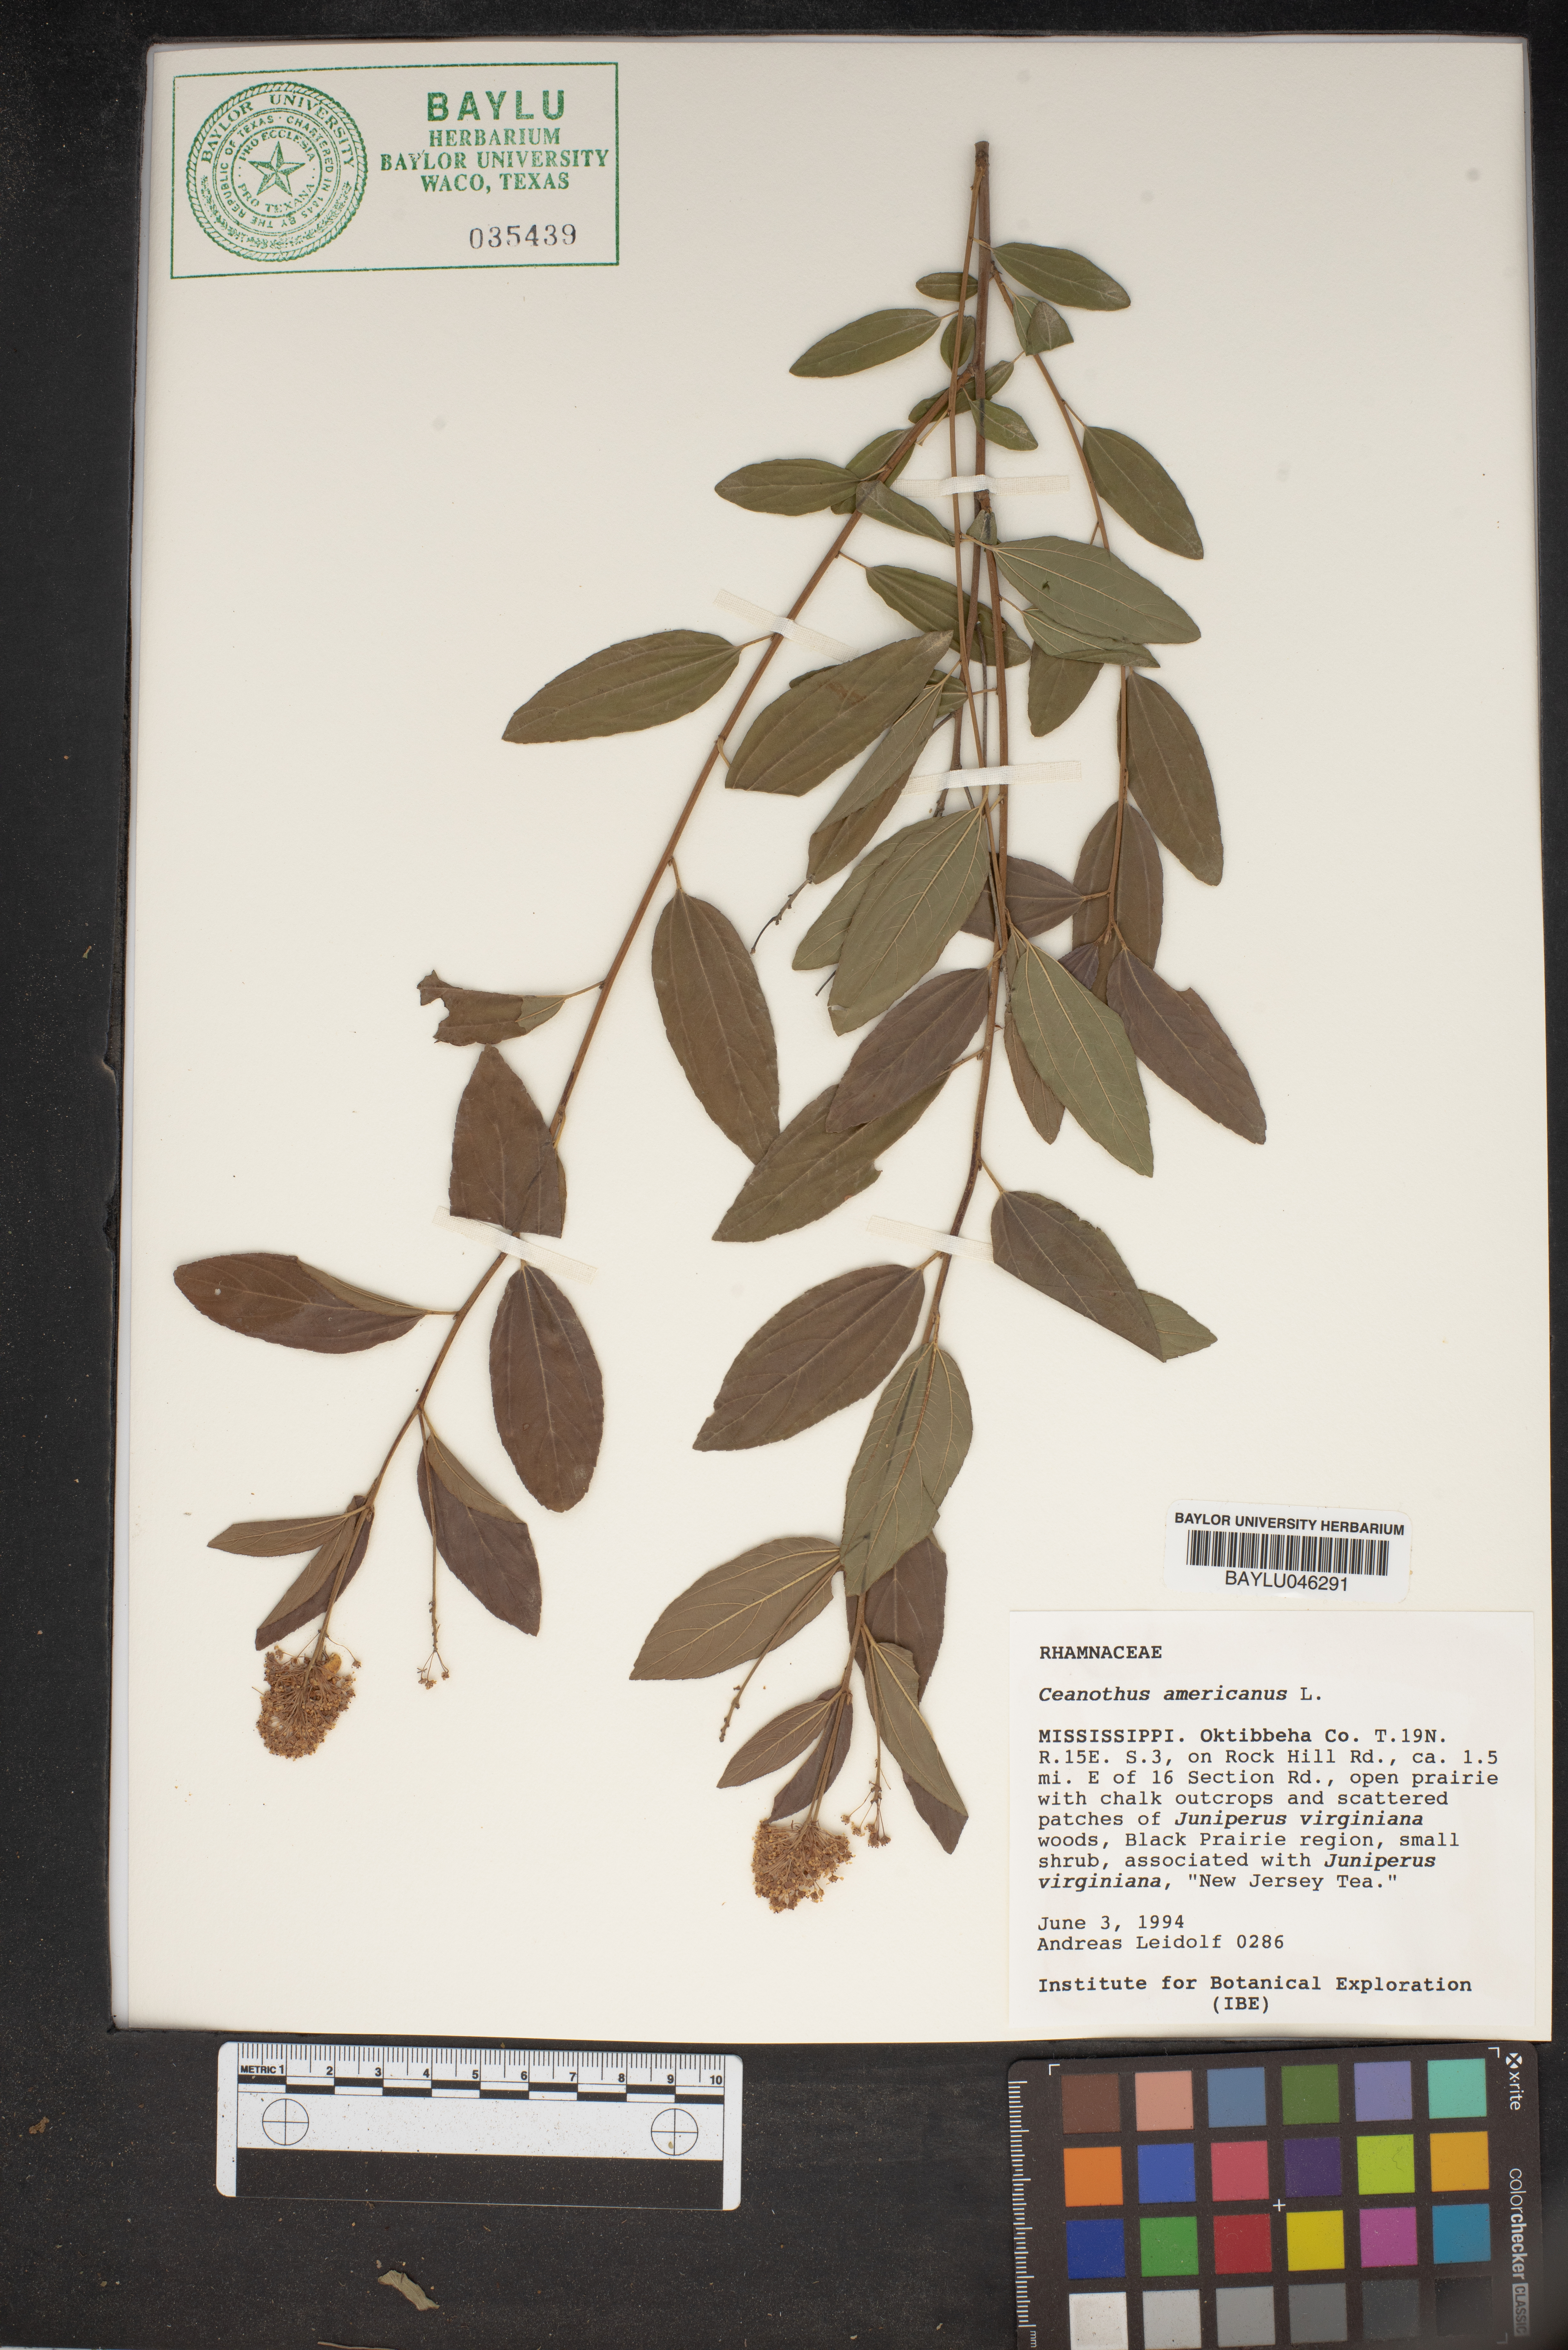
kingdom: Plantae
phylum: Tracheophyta
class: Magnoliopsida
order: Rosales
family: Rhamnaceae
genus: Ceanothus
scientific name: Ceanothus americanus
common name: Redroot
